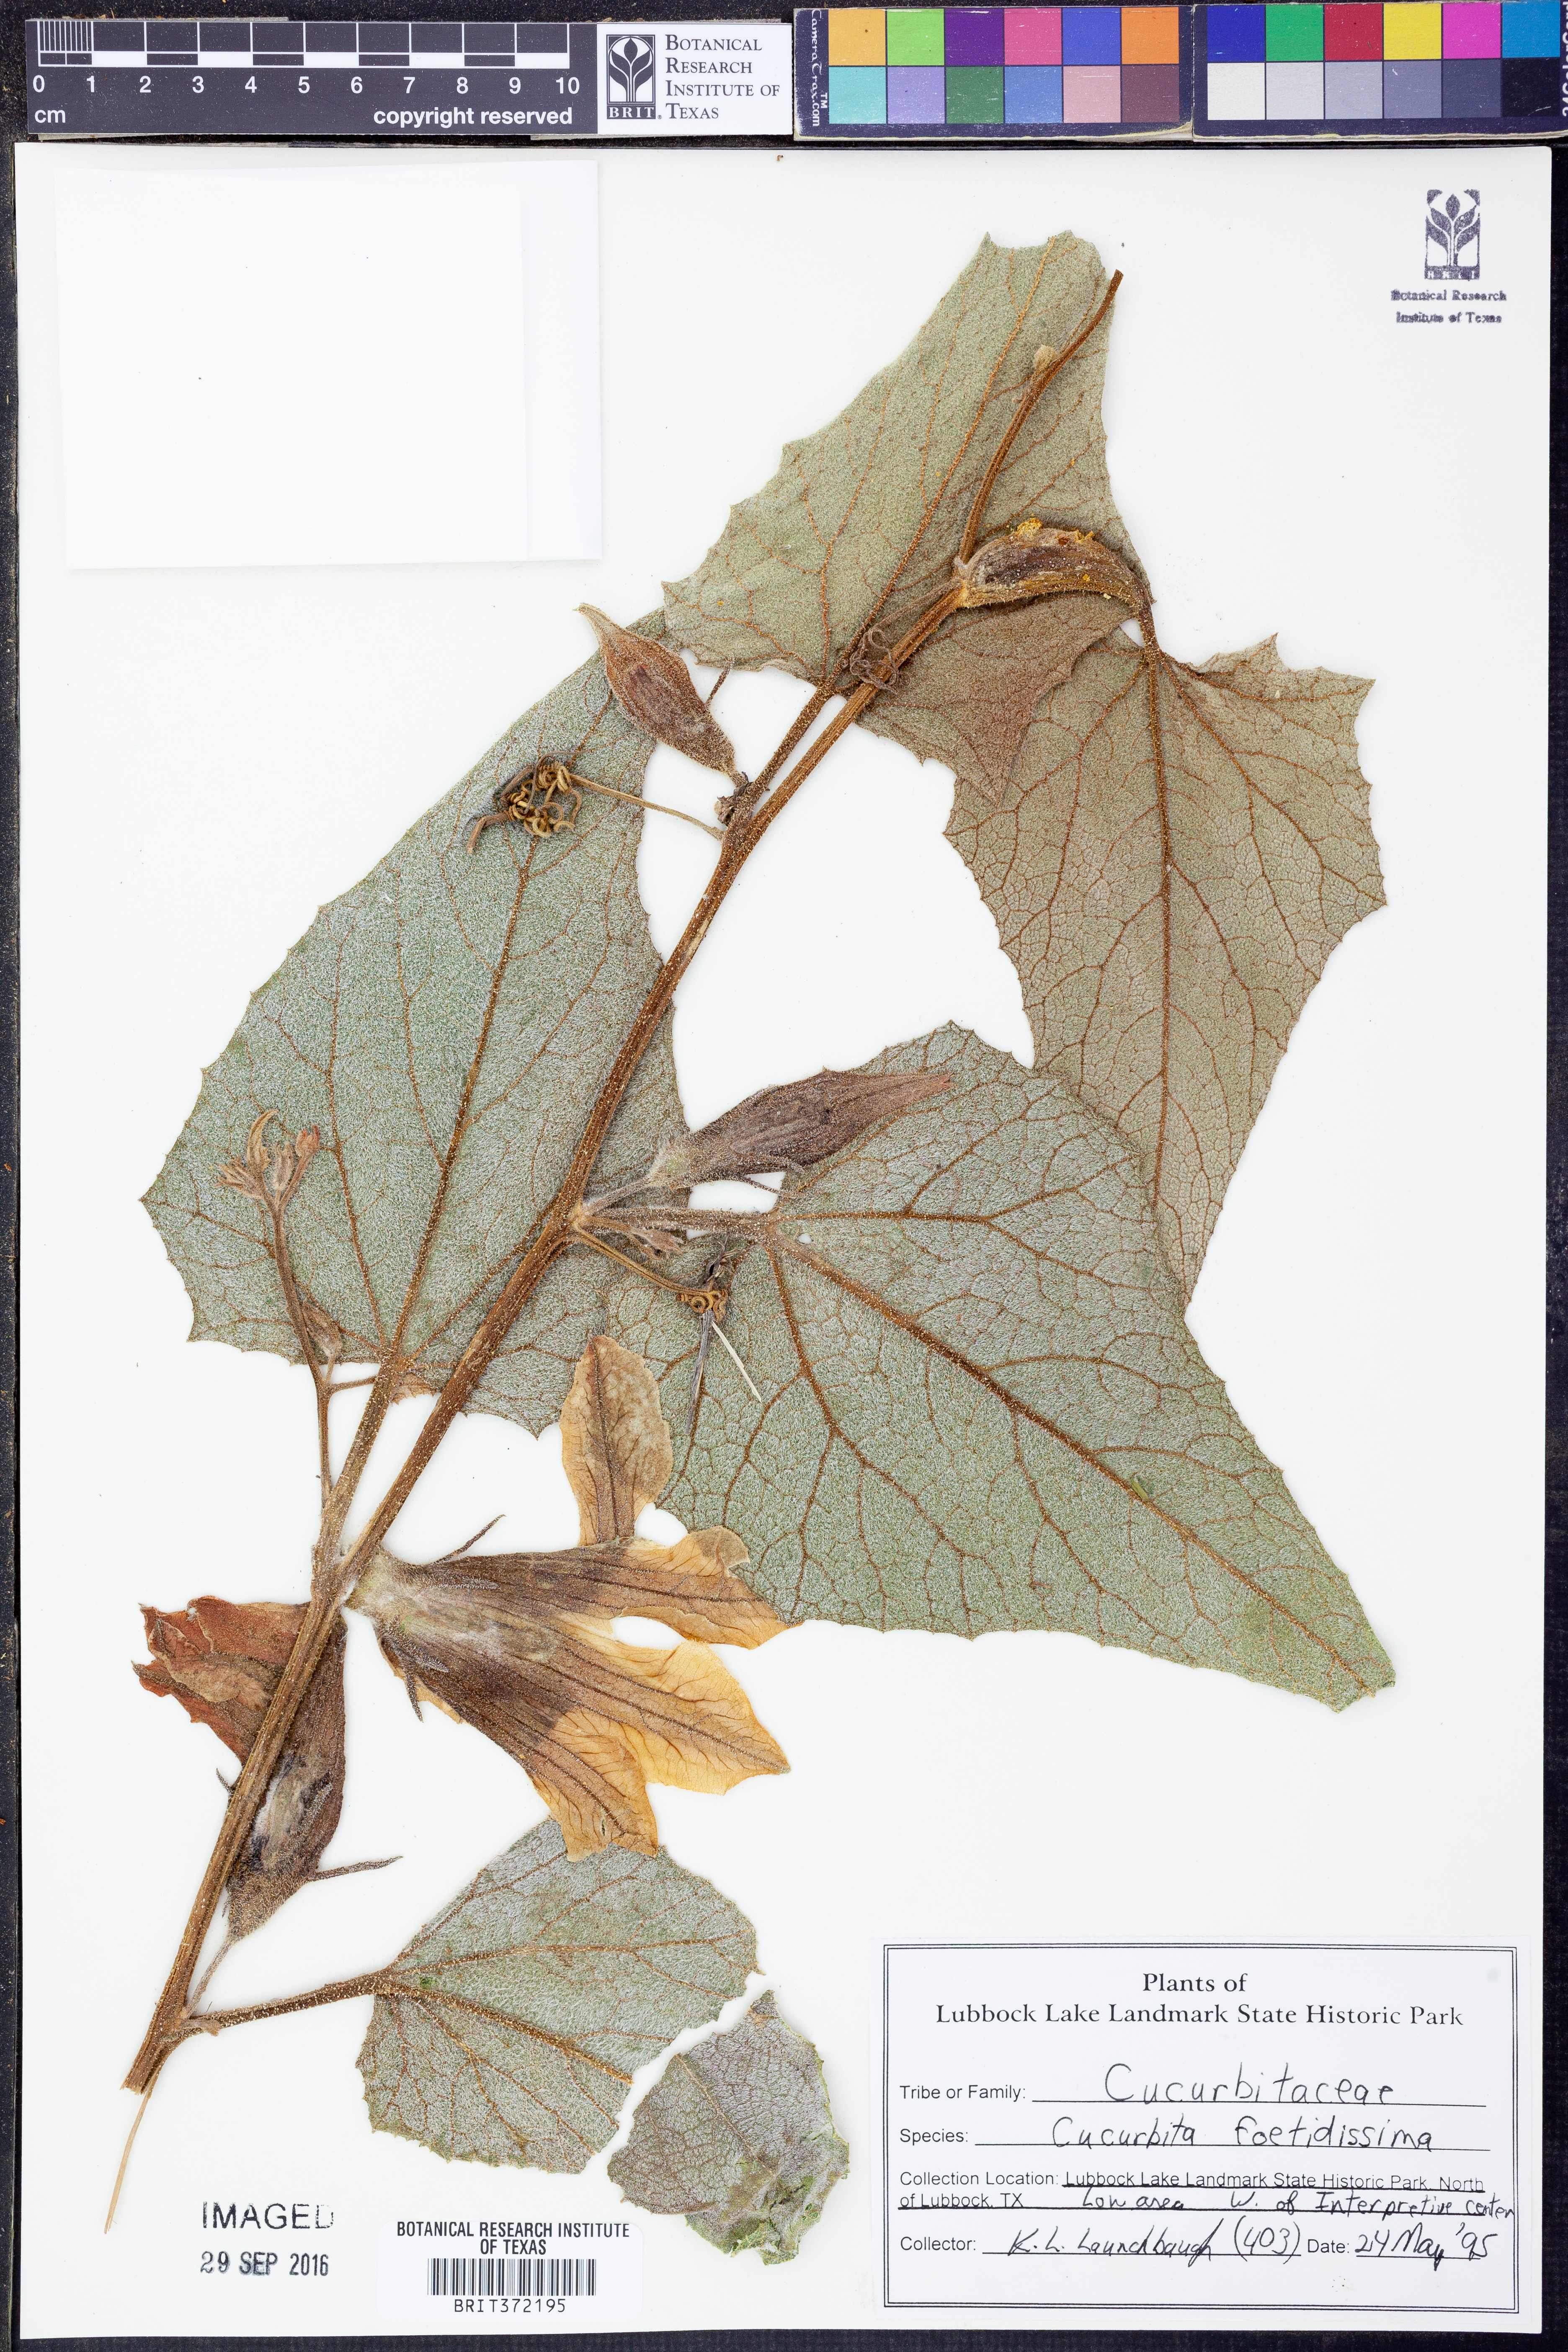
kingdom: Plantae
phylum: Tracheophyta
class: Magnoliopsida
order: Cucurbitales
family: Cucurbitaceae
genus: Cucurbita
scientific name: Cucurbita foetidissima
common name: Buffalo gourd
